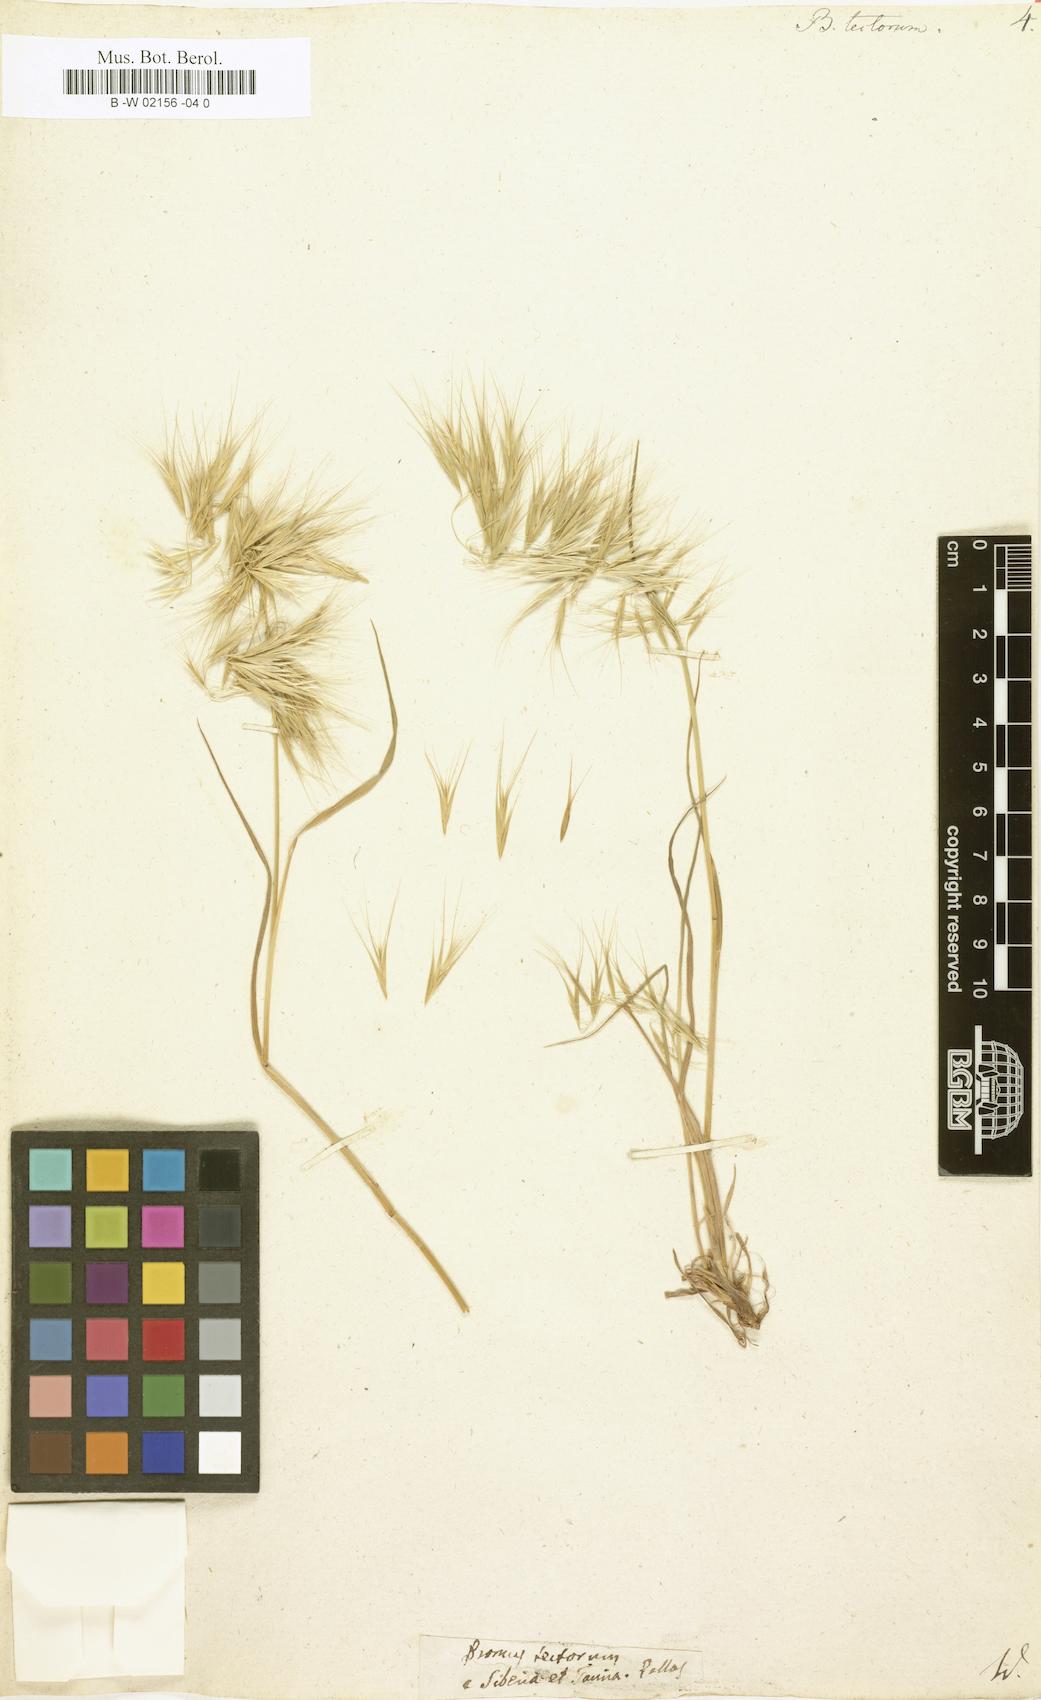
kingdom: Plantae
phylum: Tracheophyta
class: Liliopsida
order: Poales
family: Poaceae
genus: Bromus
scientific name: Bromus tectorum
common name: Cheatgrass
